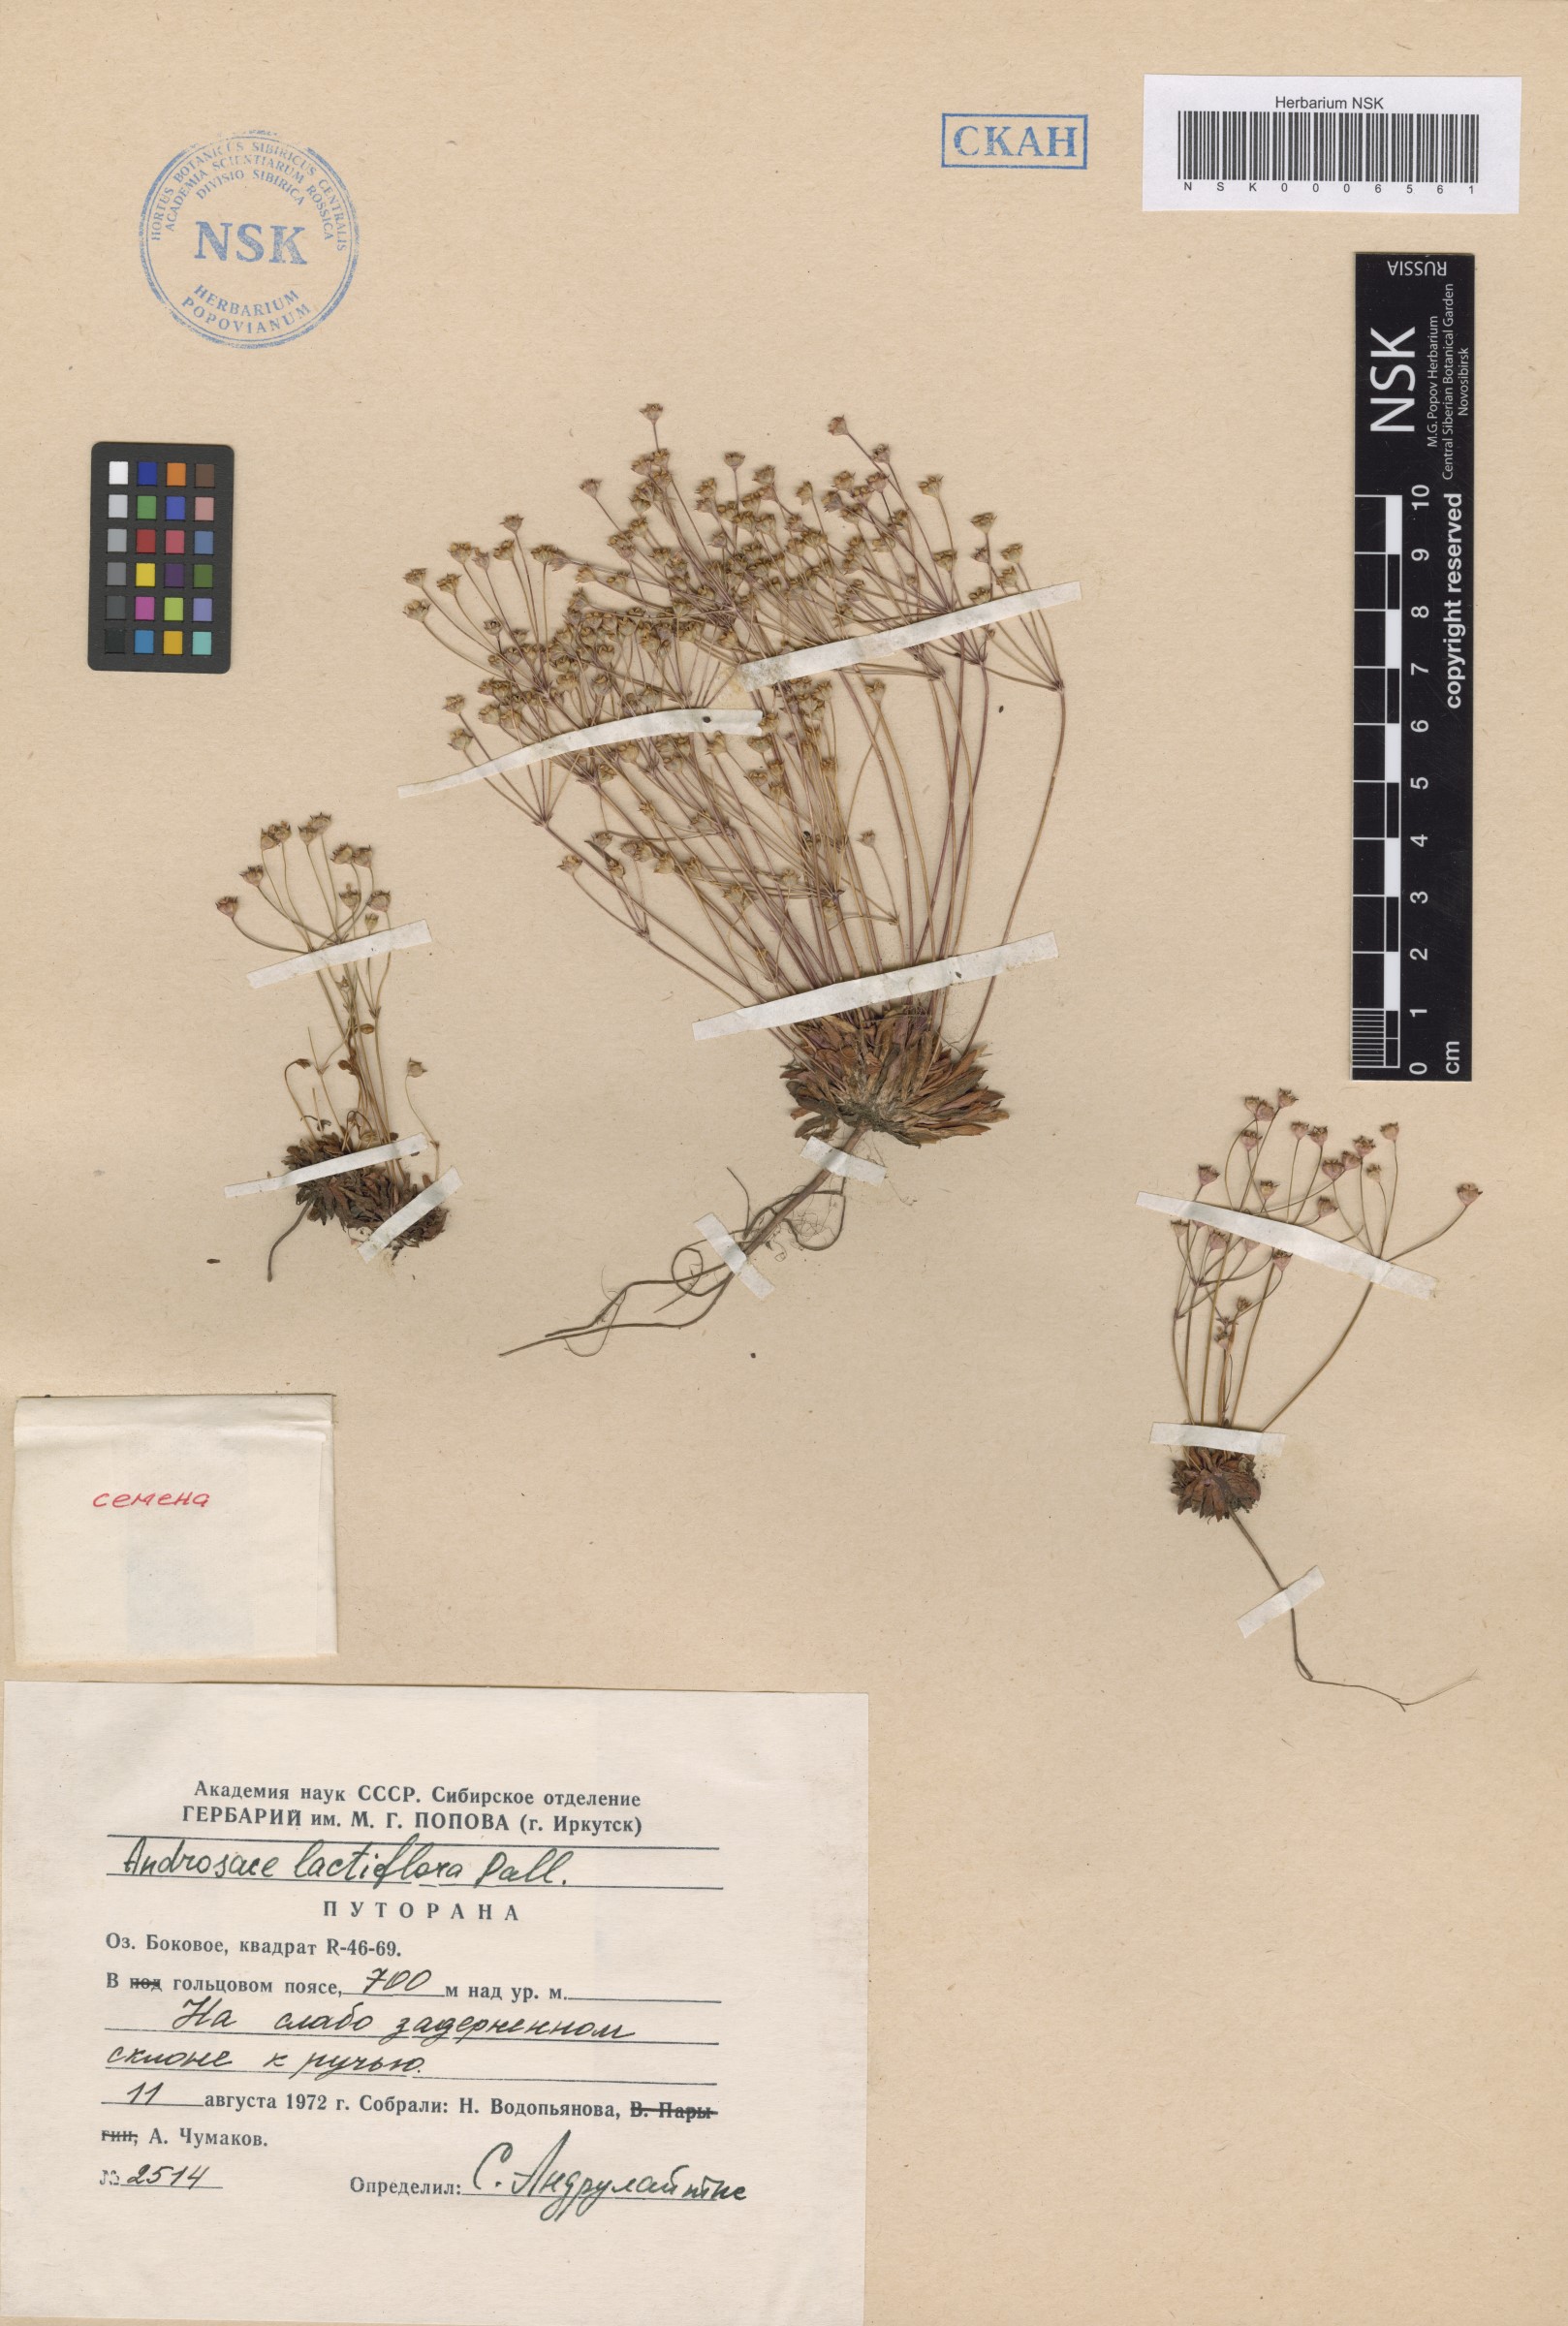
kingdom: Plantae
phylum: Tracheophyta
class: Magnoliopsida
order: Ericales
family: Primulaceae
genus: Androsace
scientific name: Androsace lactiflora
